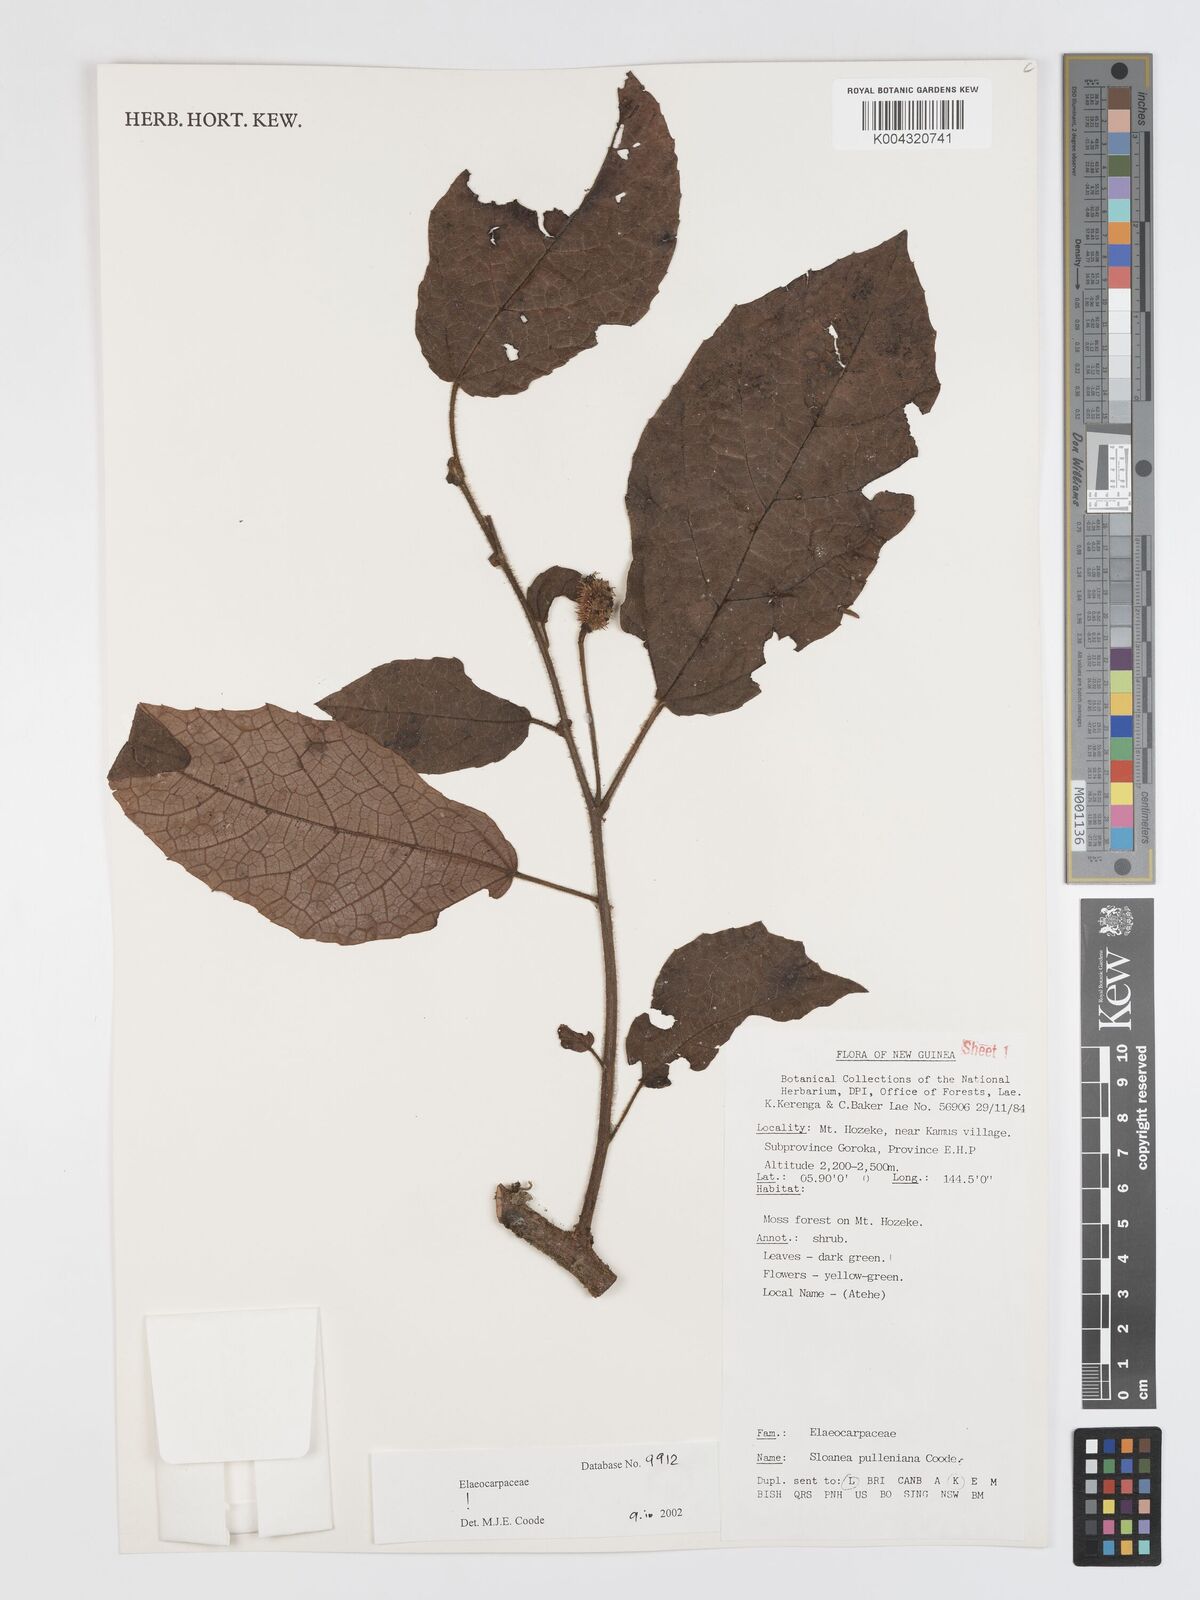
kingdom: Plantae
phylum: Tracheophyta
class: Magnoliopsida
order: Oxalidales
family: Elaeocarpaceae
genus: Sloanea
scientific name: Sloanea pulleniana
